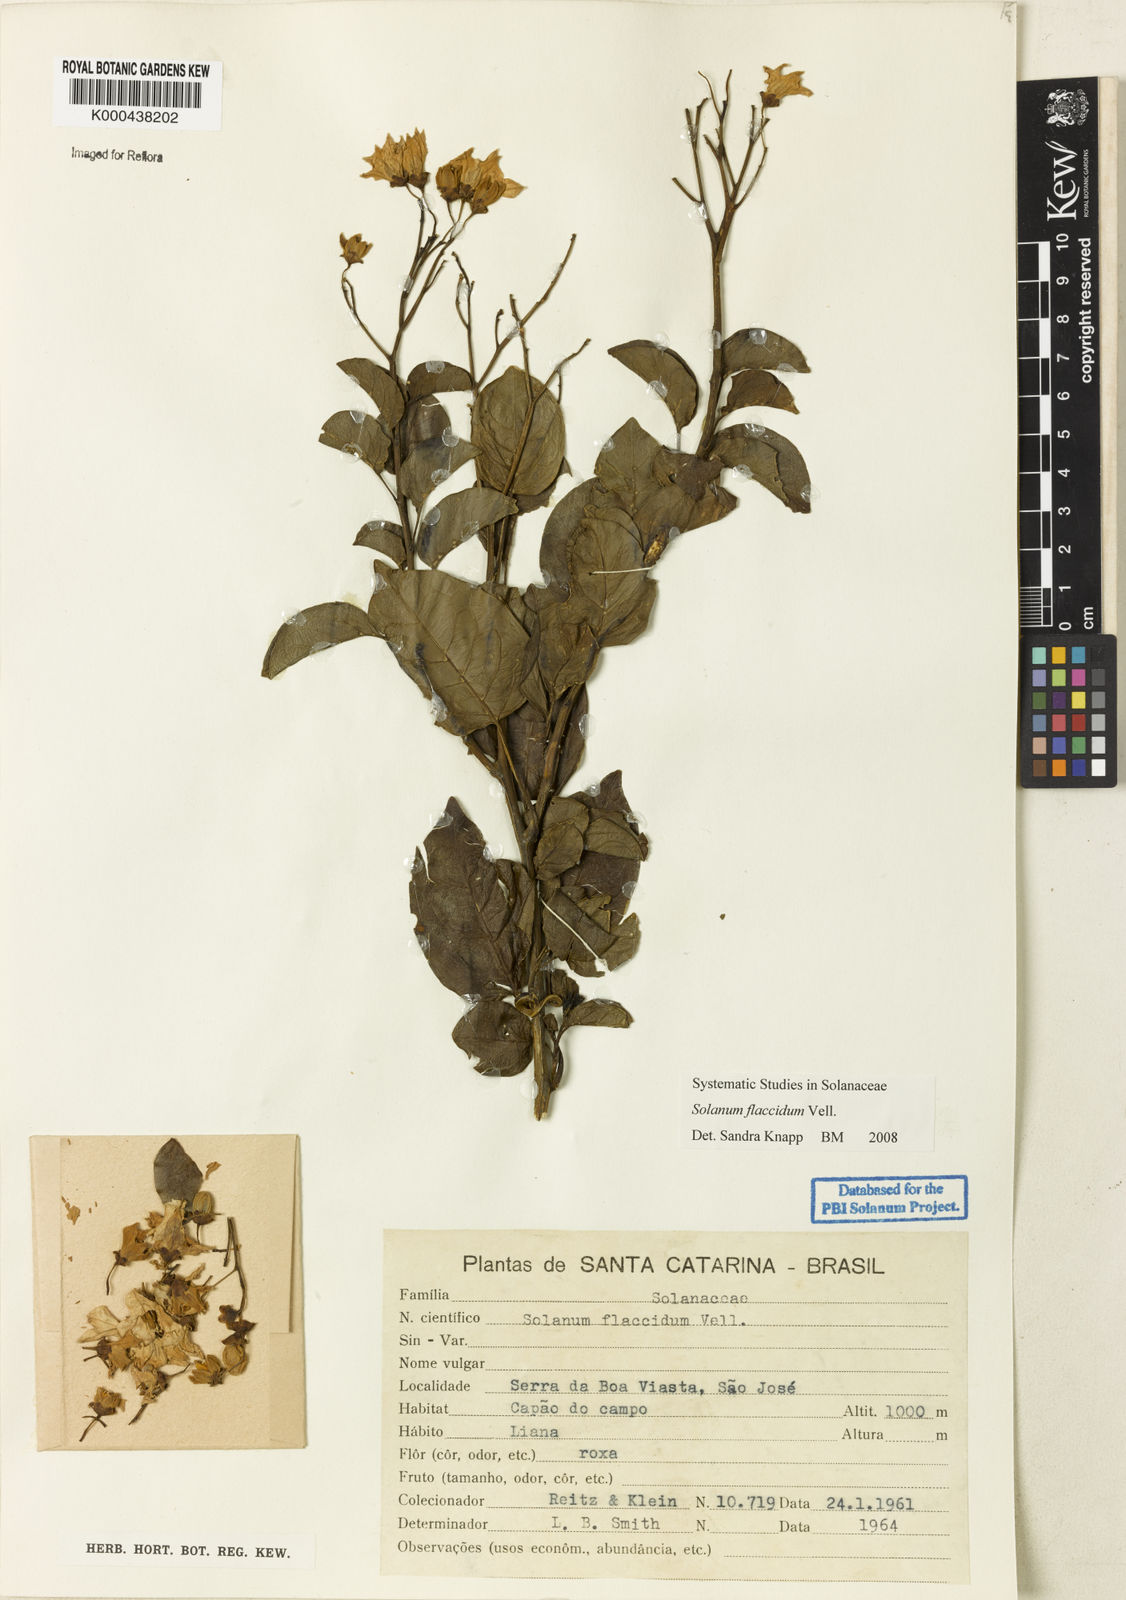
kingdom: Plantae
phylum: Tracheophyta
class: Magnoliopsida
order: Solanales
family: Solanaceae
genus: Solanum
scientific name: Solanum flaccidum
